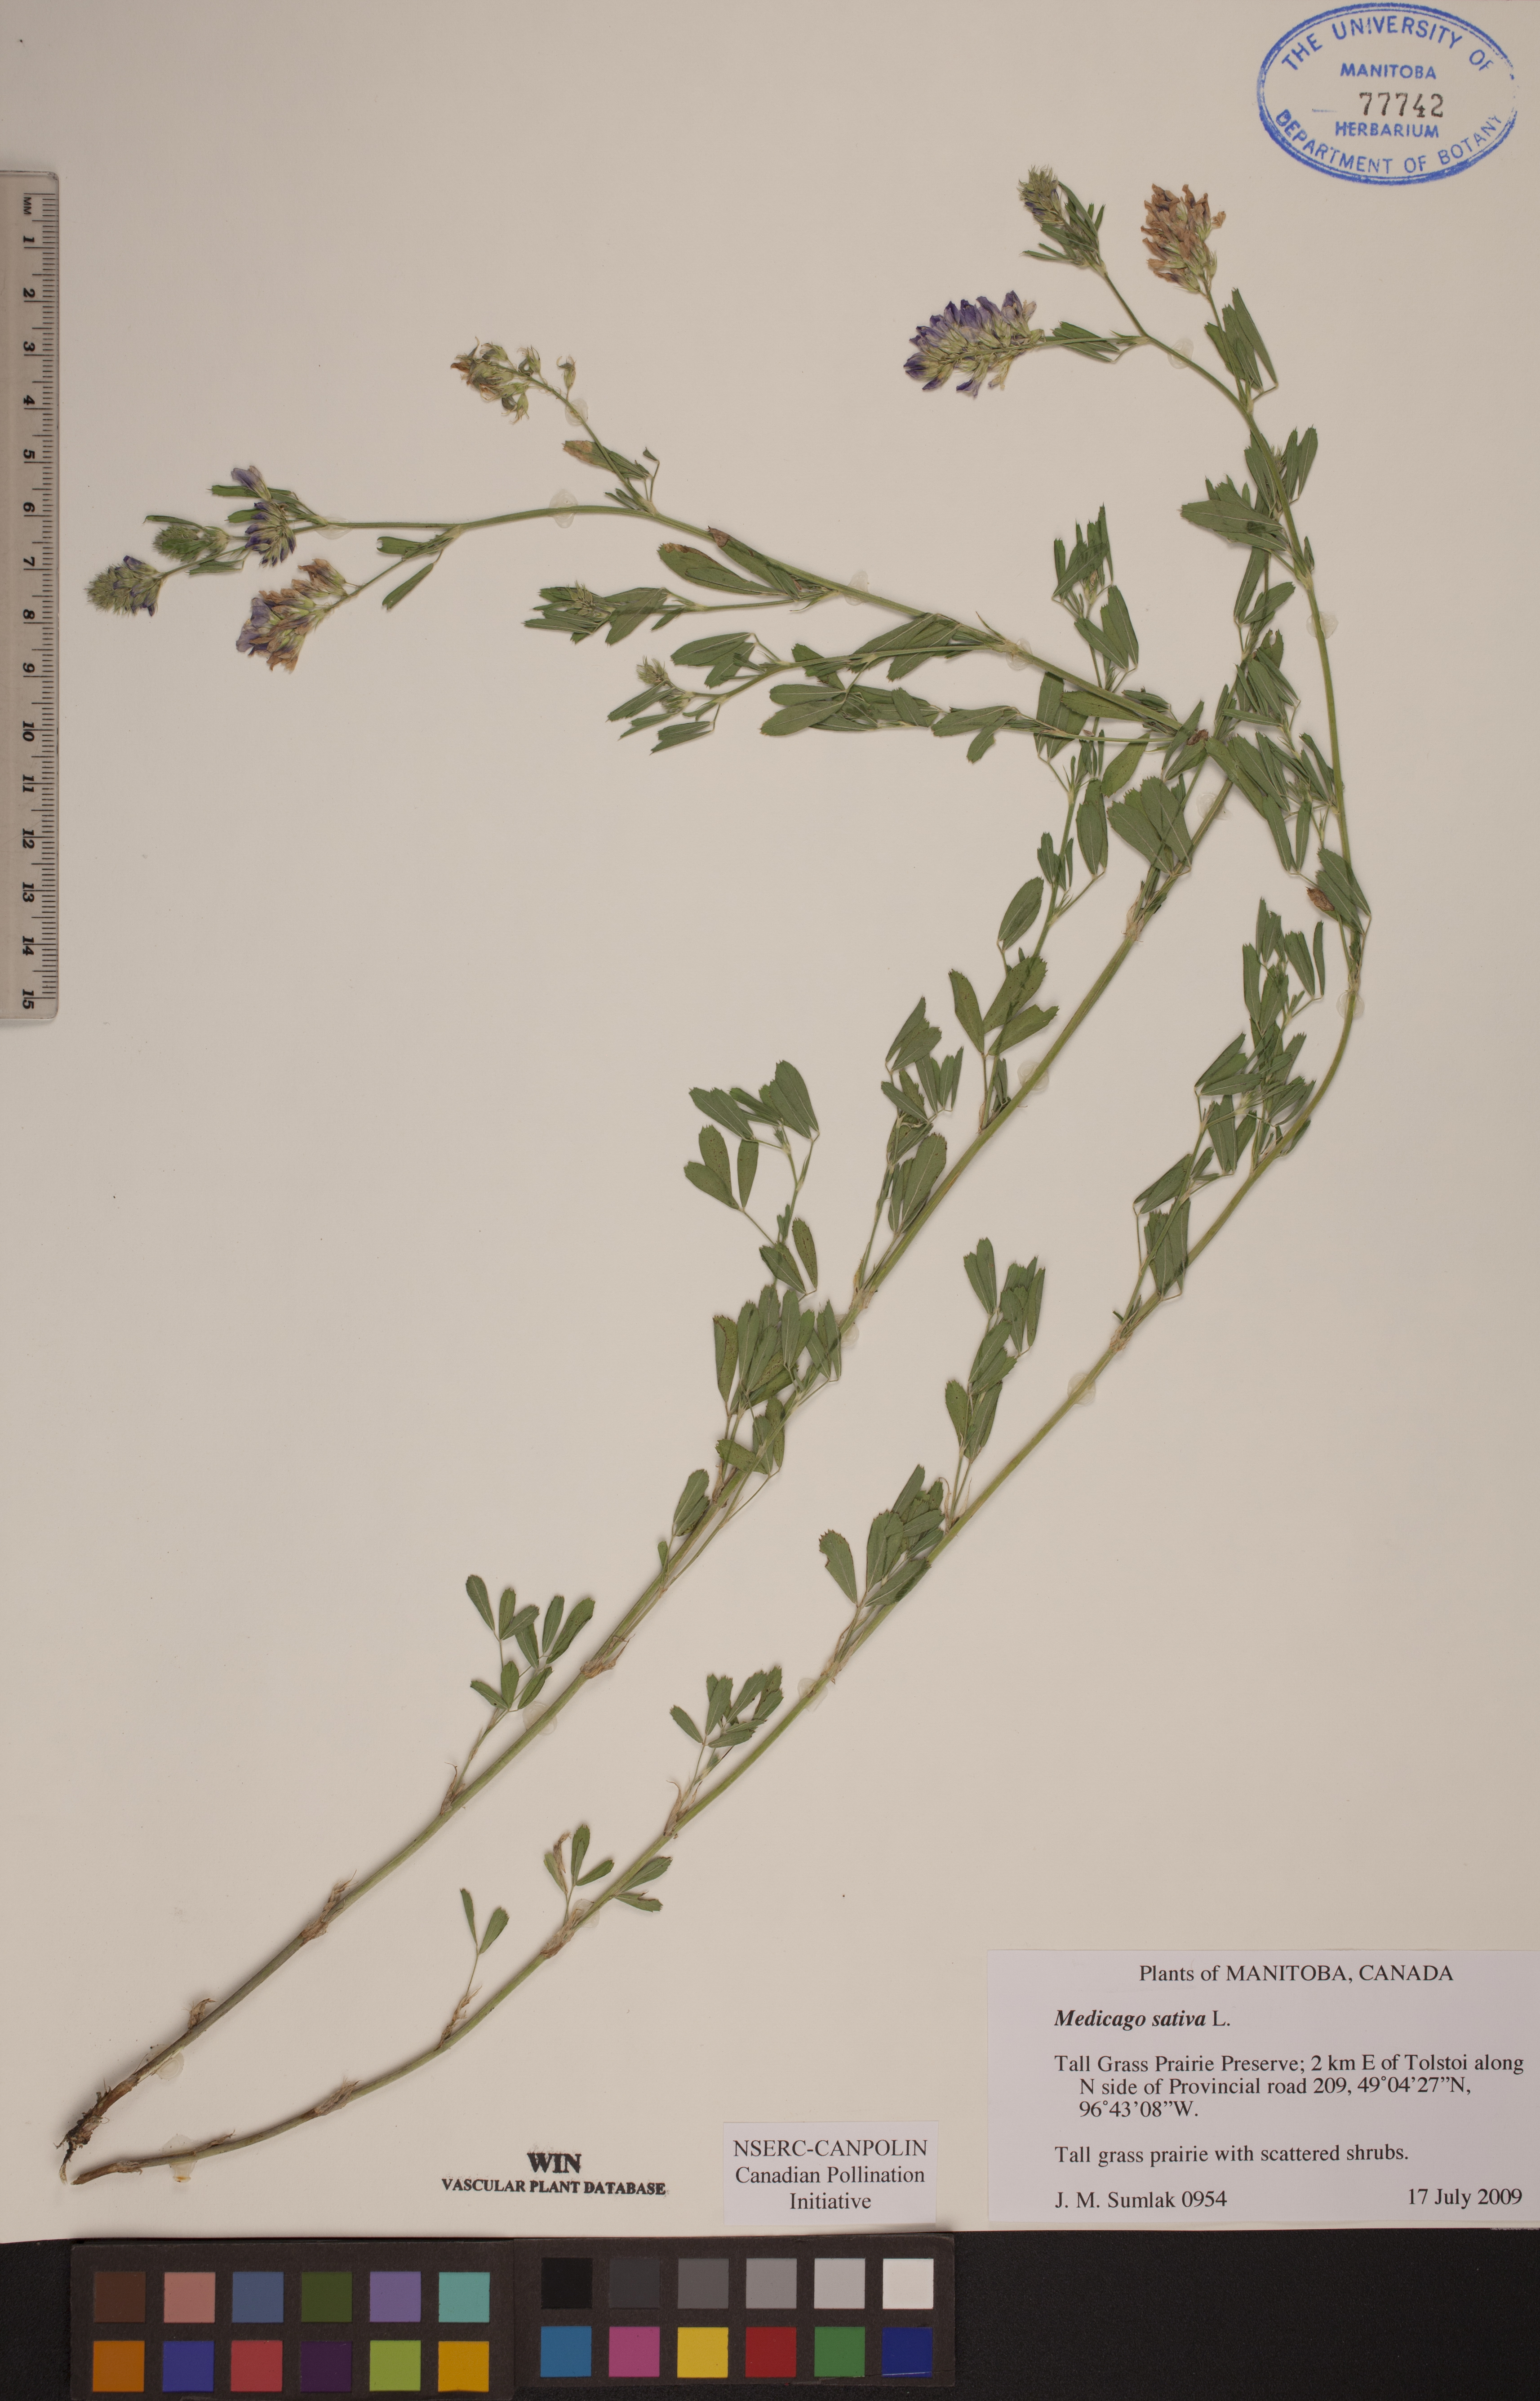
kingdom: Plantae
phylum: Tracheophyta
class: Magnoliopsida
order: Fabales
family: Fabaceae
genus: Medicago
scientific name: Medicago sativa
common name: Alfalfa
